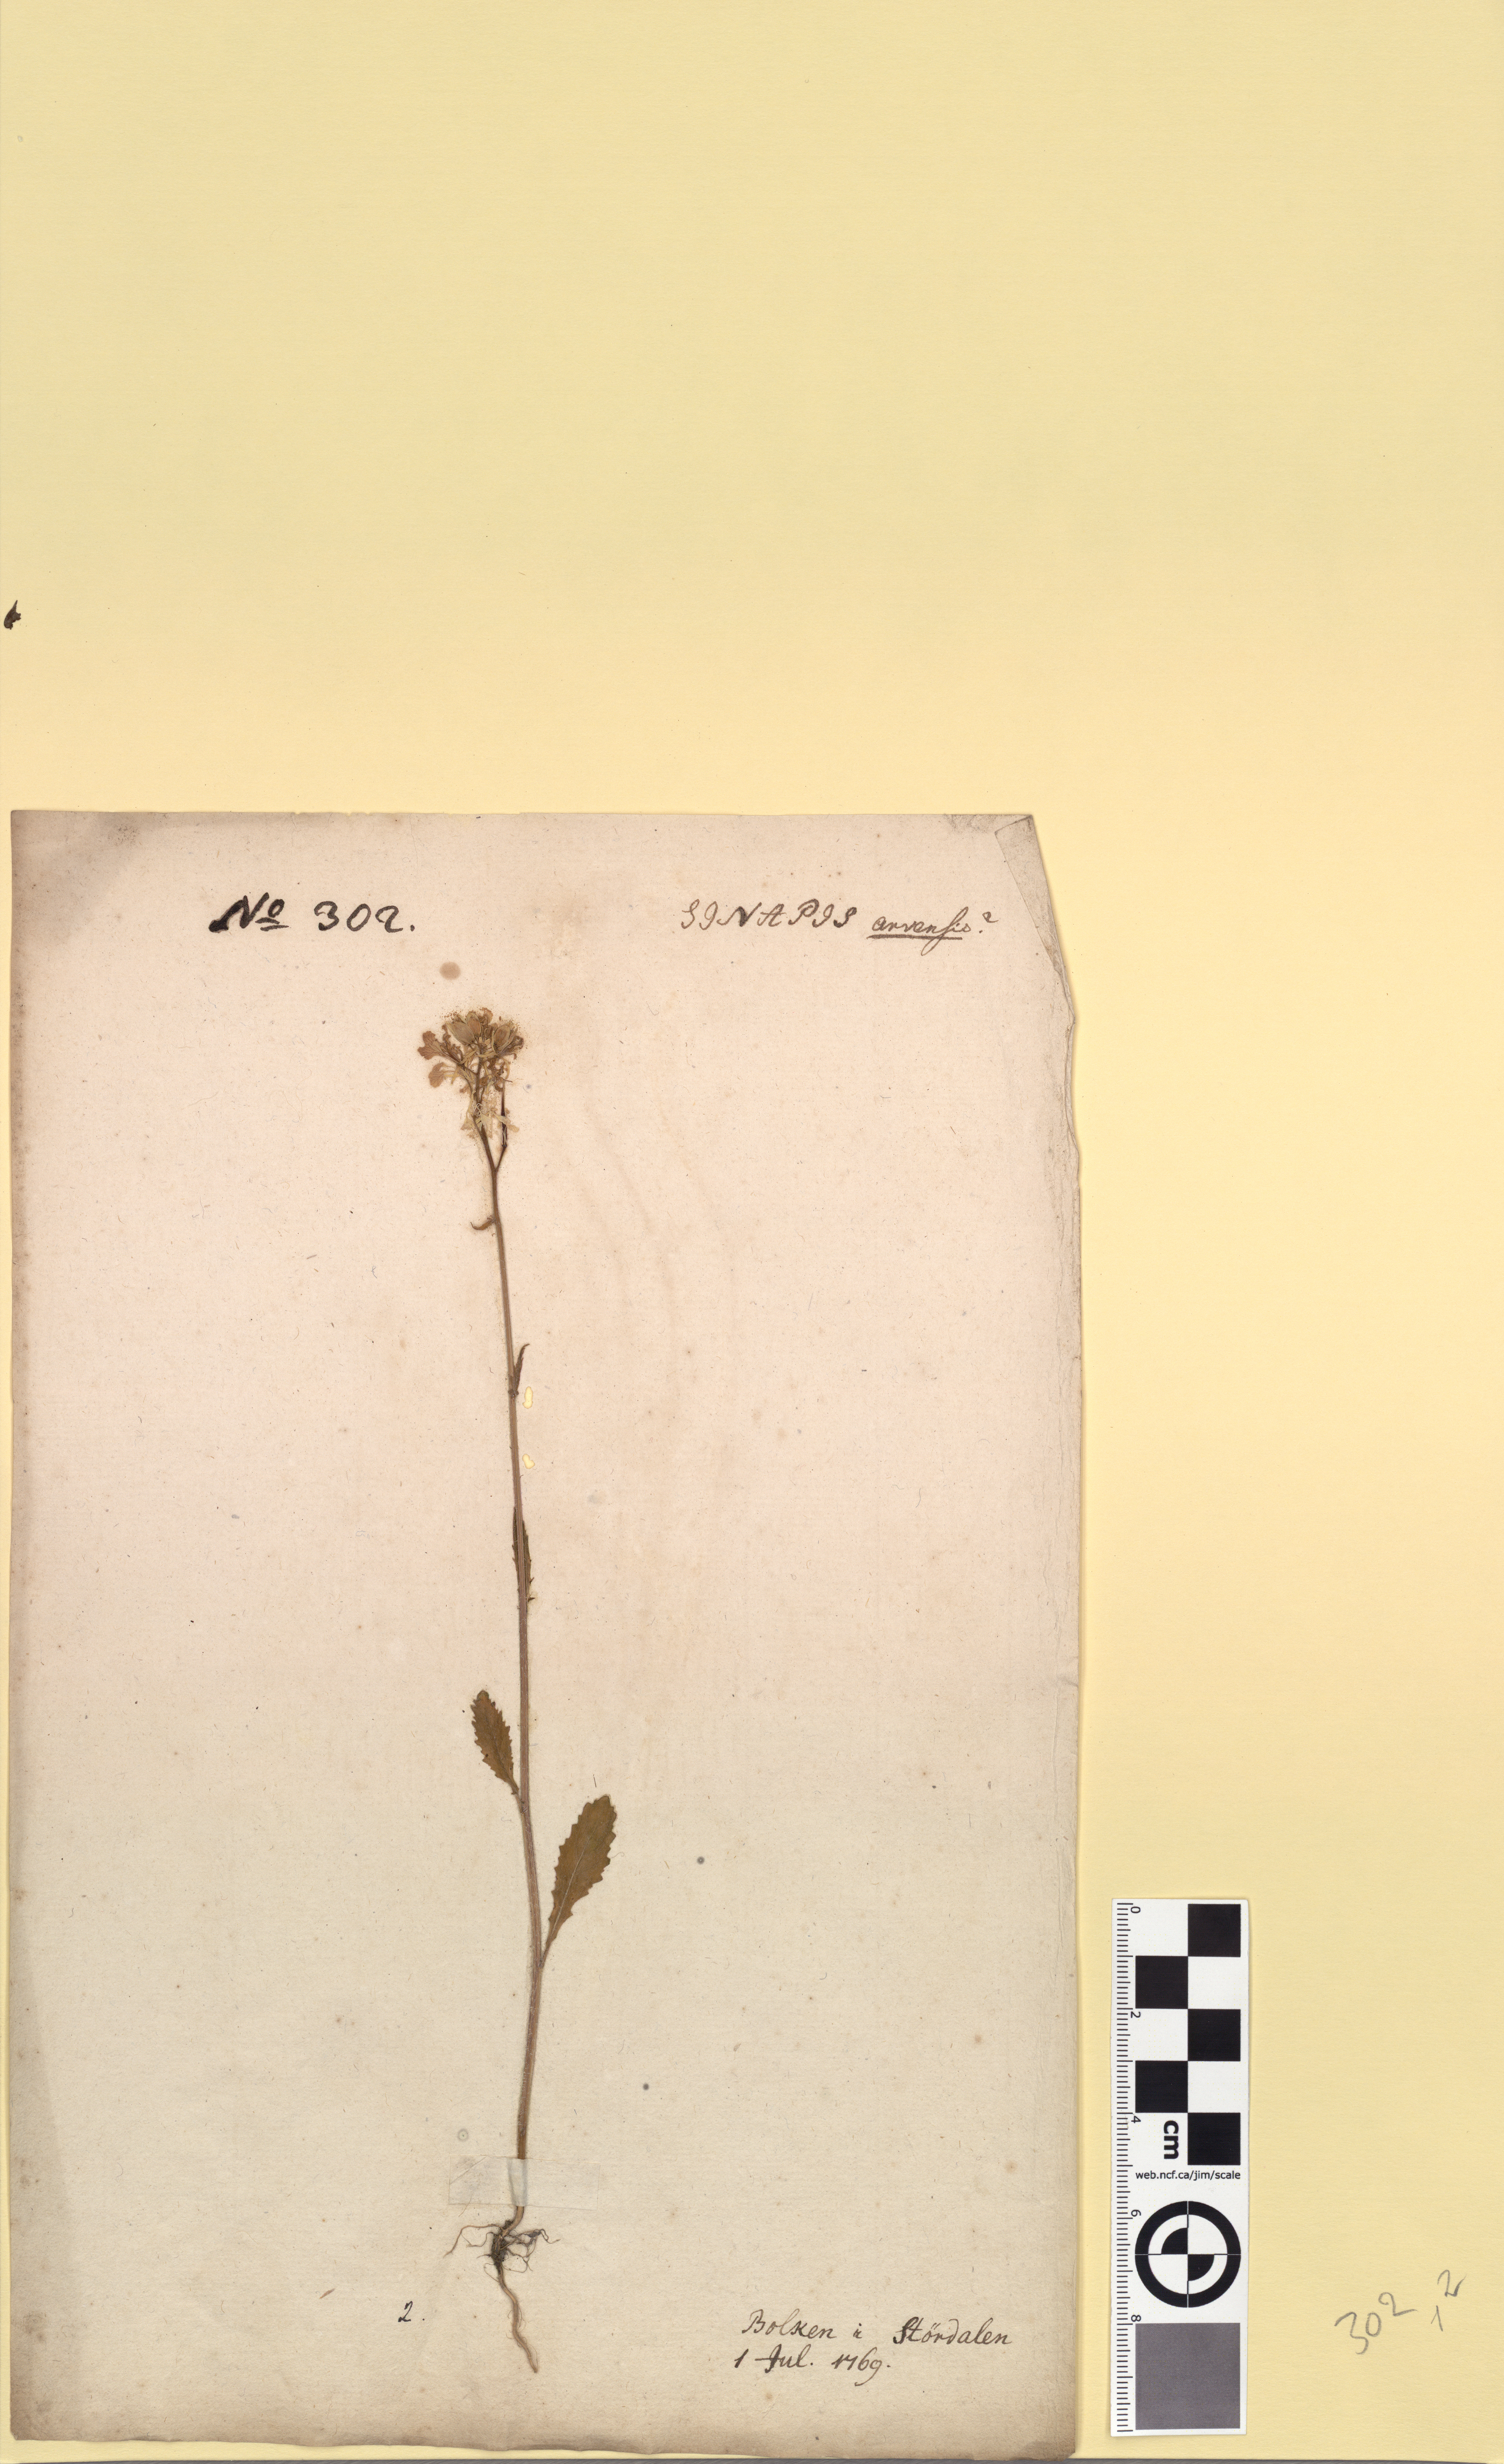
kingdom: Plantae
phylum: Tracheophyta
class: Magnoliopsida
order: Brassicales
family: Brassicaceae
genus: Sinapis
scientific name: Sinapis arvensis
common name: Charlock
